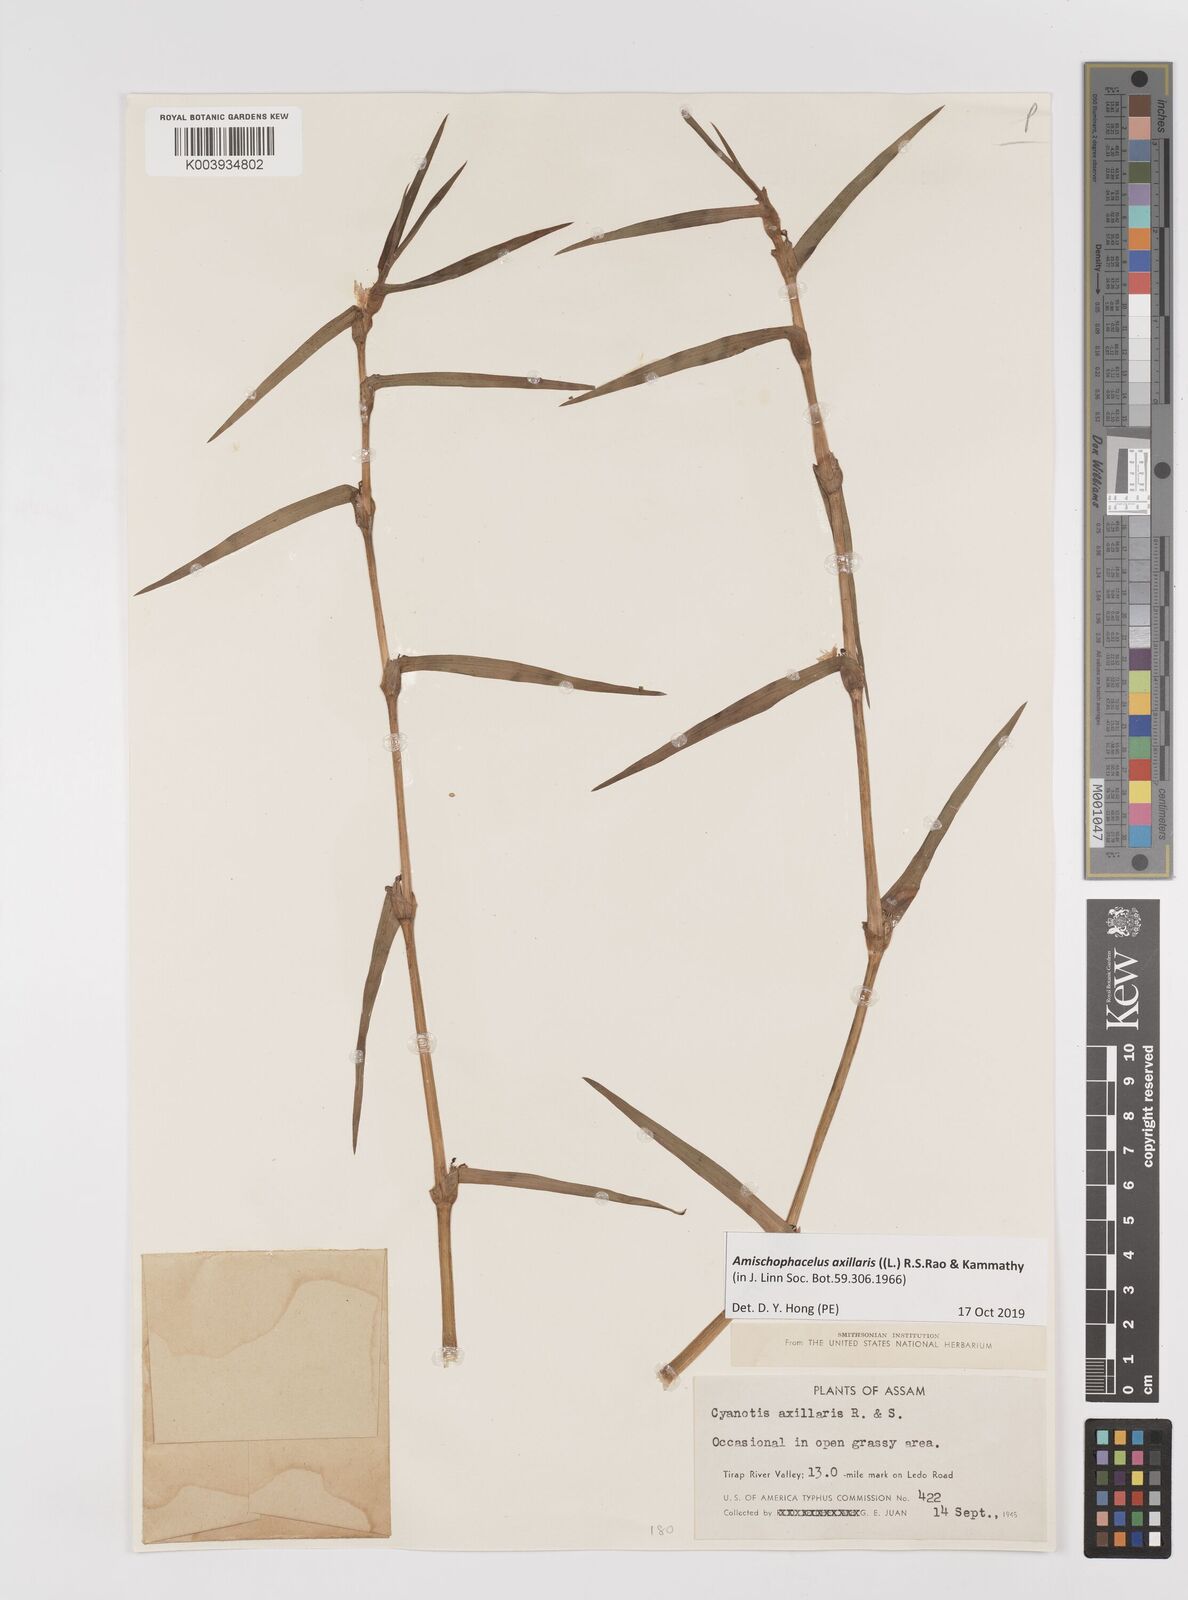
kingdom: Plantae
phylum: Tracheophyta
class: Liliopsida
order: Commelinales
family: Commelinaceae
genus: Cyanotis
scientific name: Cyanotis axillaris
